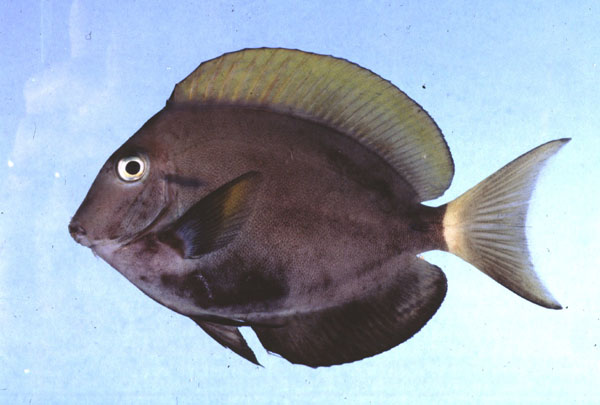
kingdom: Animalia
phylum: Chordata
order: Perciformes
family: Acanthuridae
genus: Acanthurus
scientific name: Acanthurus blochii
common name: Blue-banded pualu
